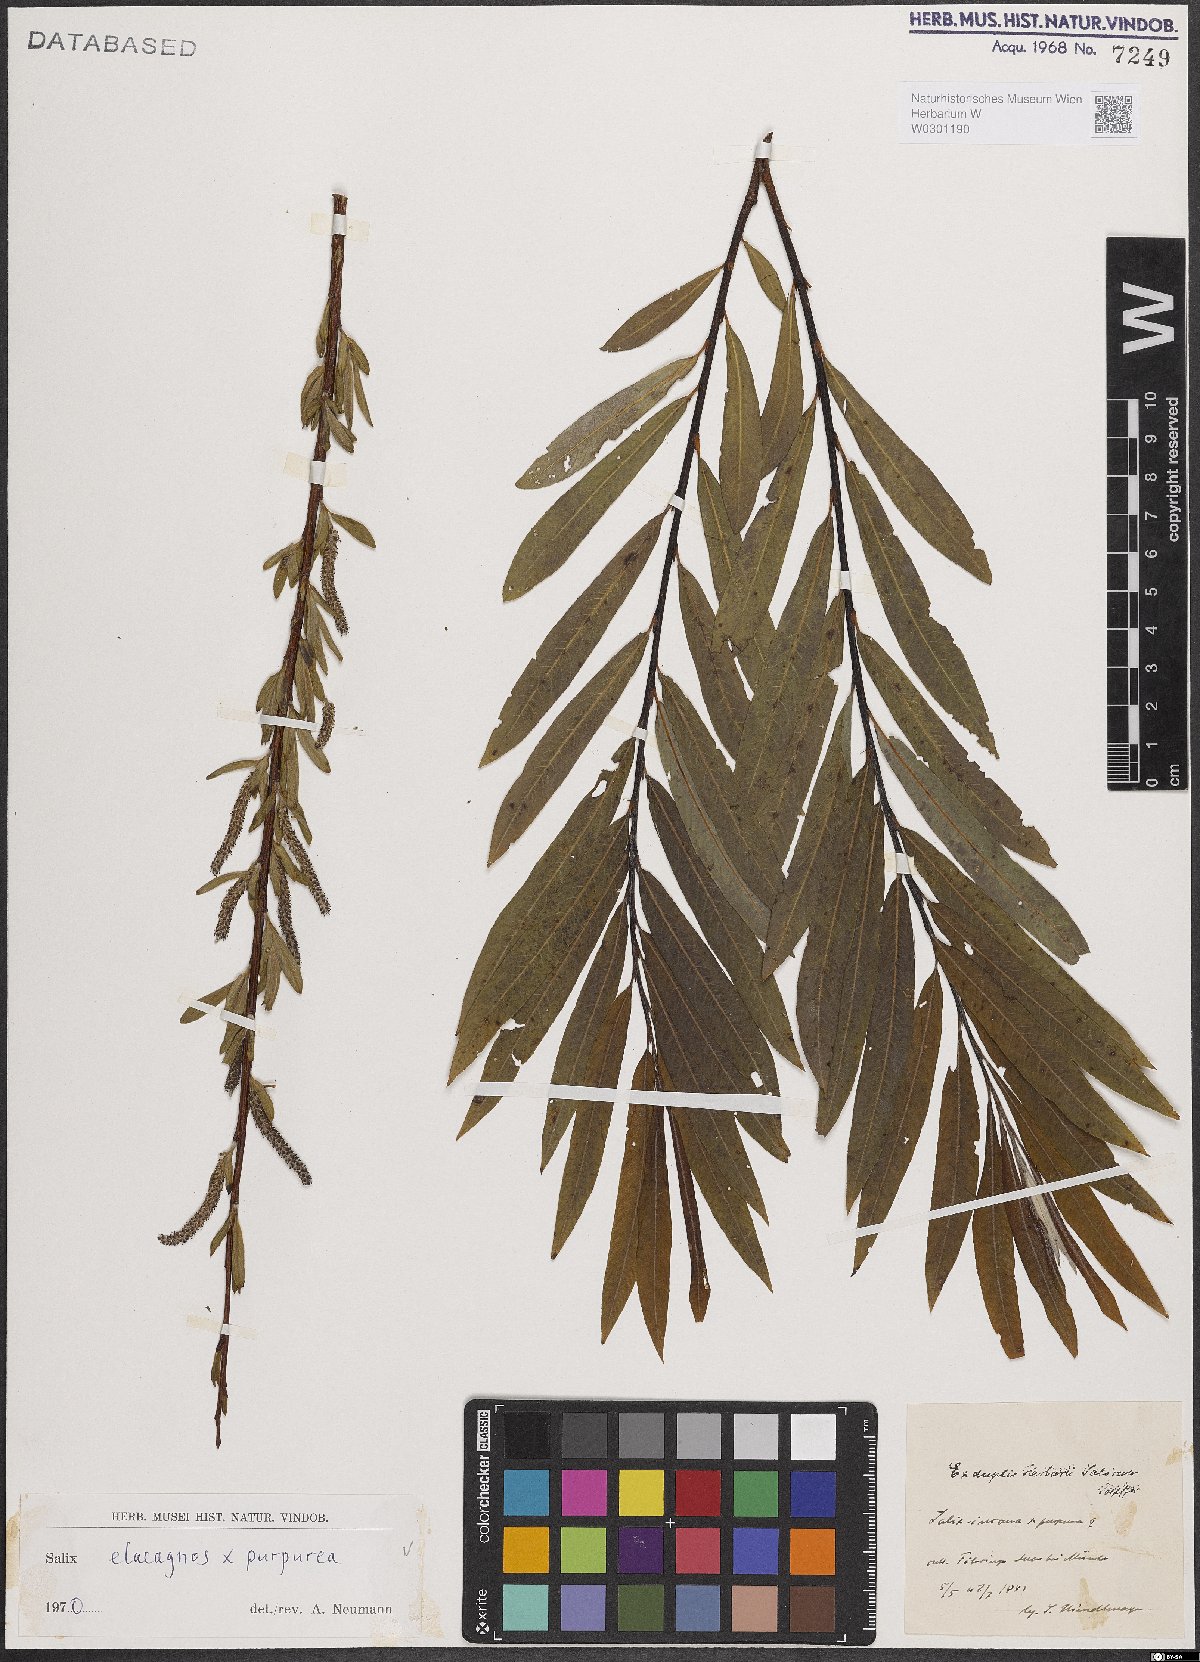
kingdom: Plantae
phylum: Tracheophyta
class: Magnoliopsida
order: Malpighiales
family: Salicaceae
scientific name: Salicaceae
